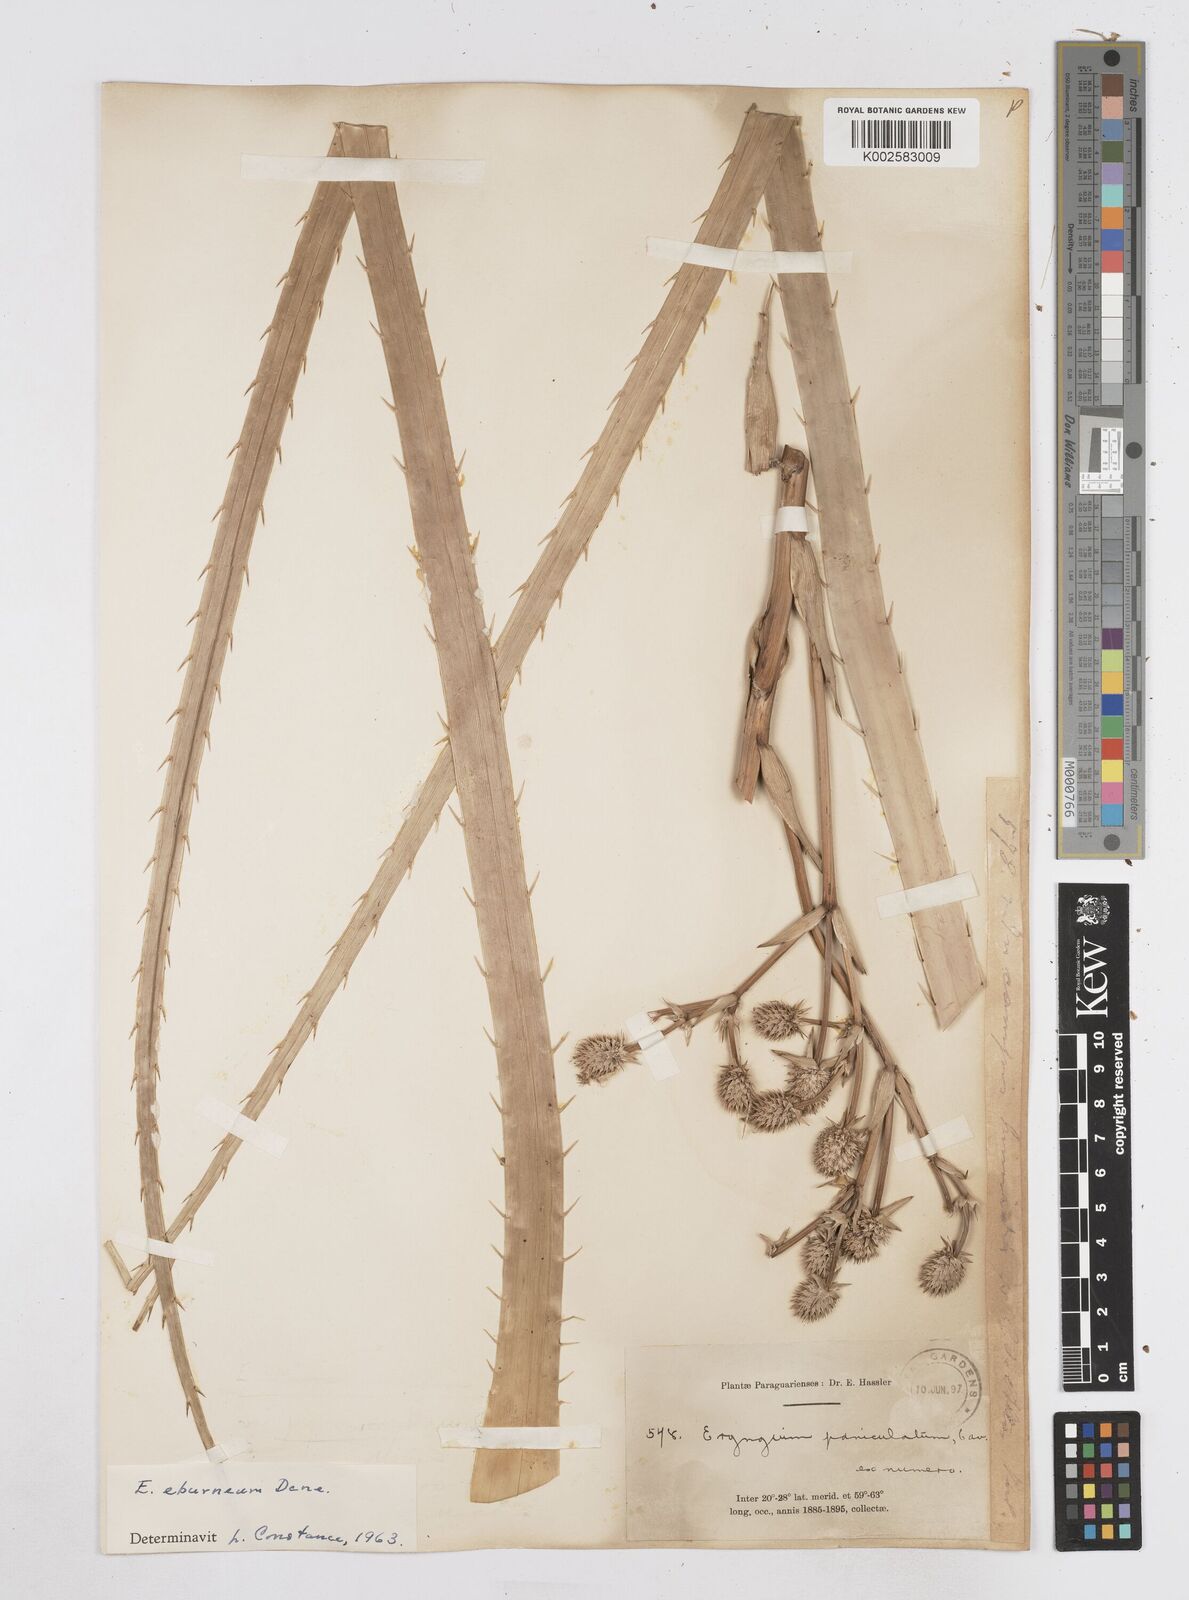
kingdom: Plantae
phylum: Tracheophyta
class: Magnoliopsida
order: Apiales
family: Apiaceae
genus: Eryngium
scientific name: Eryngium eburneum
